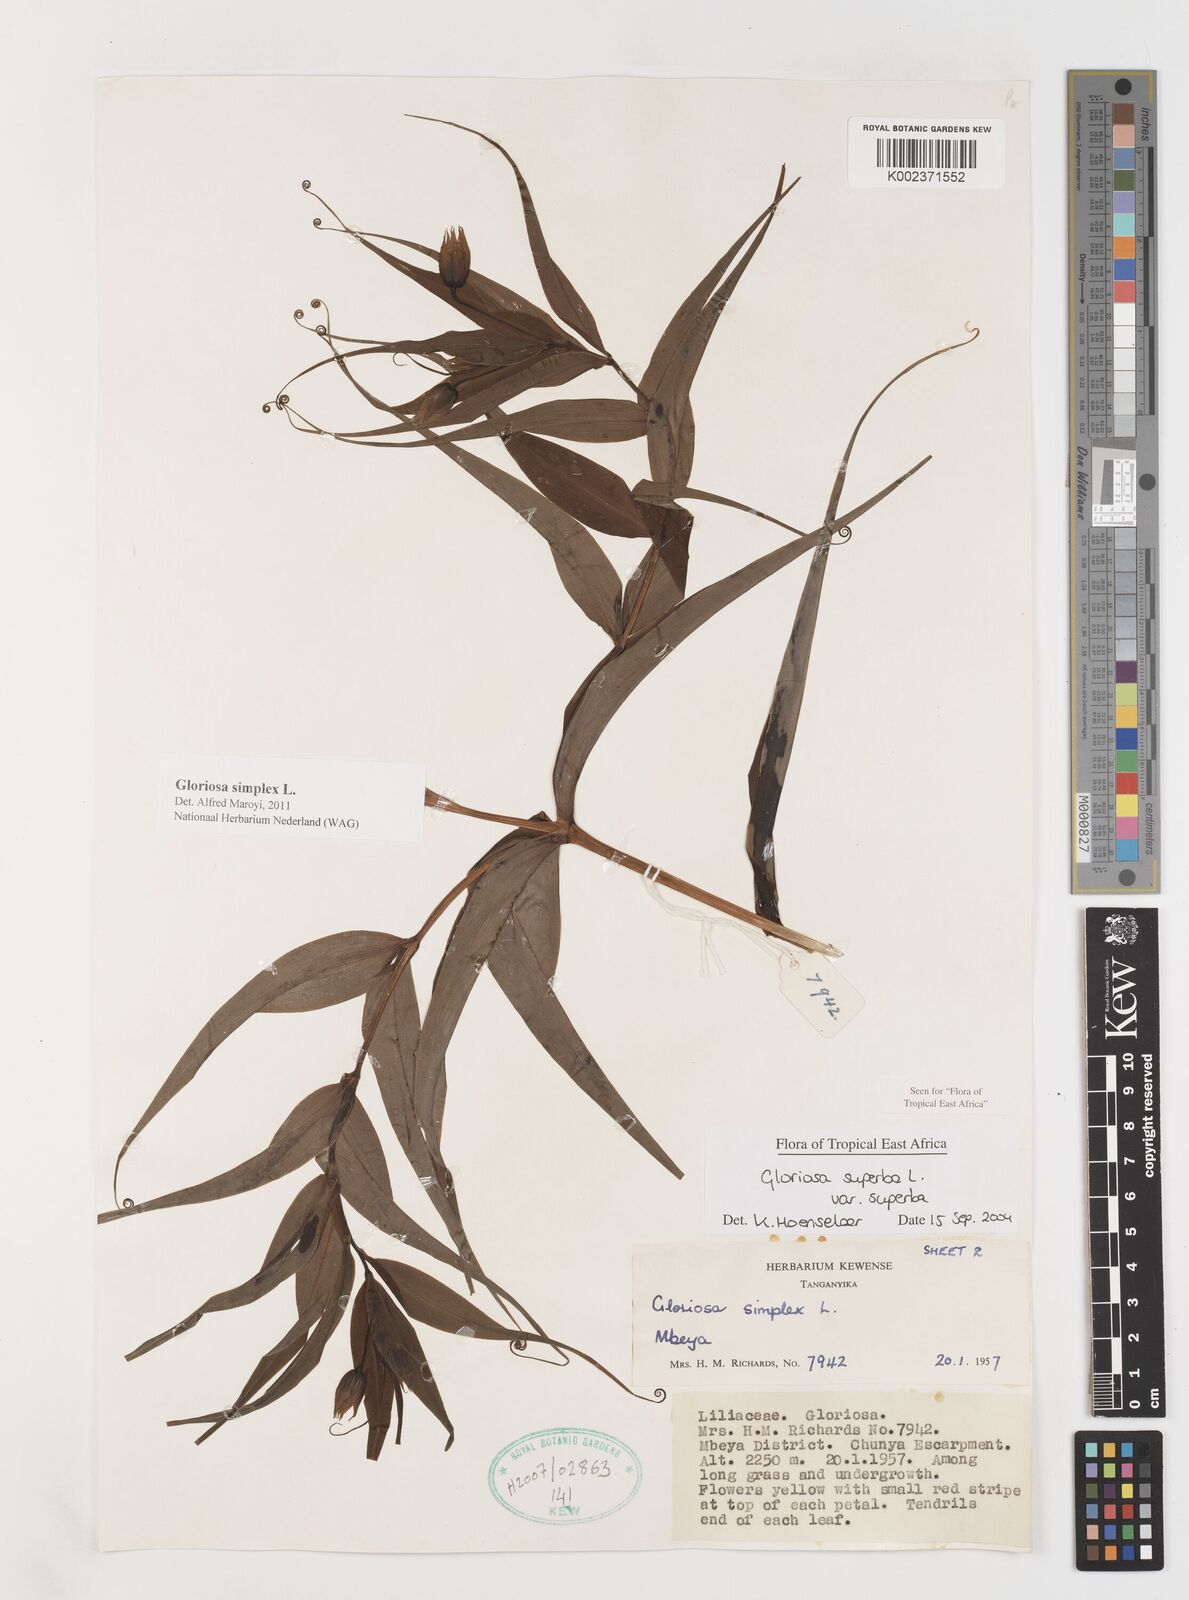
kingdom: Plantae
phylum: Tracheophyta
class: Liliopsida
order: Liliales
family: Colchicaceae
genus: Gloriosa
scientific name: Gloriosa simplex
